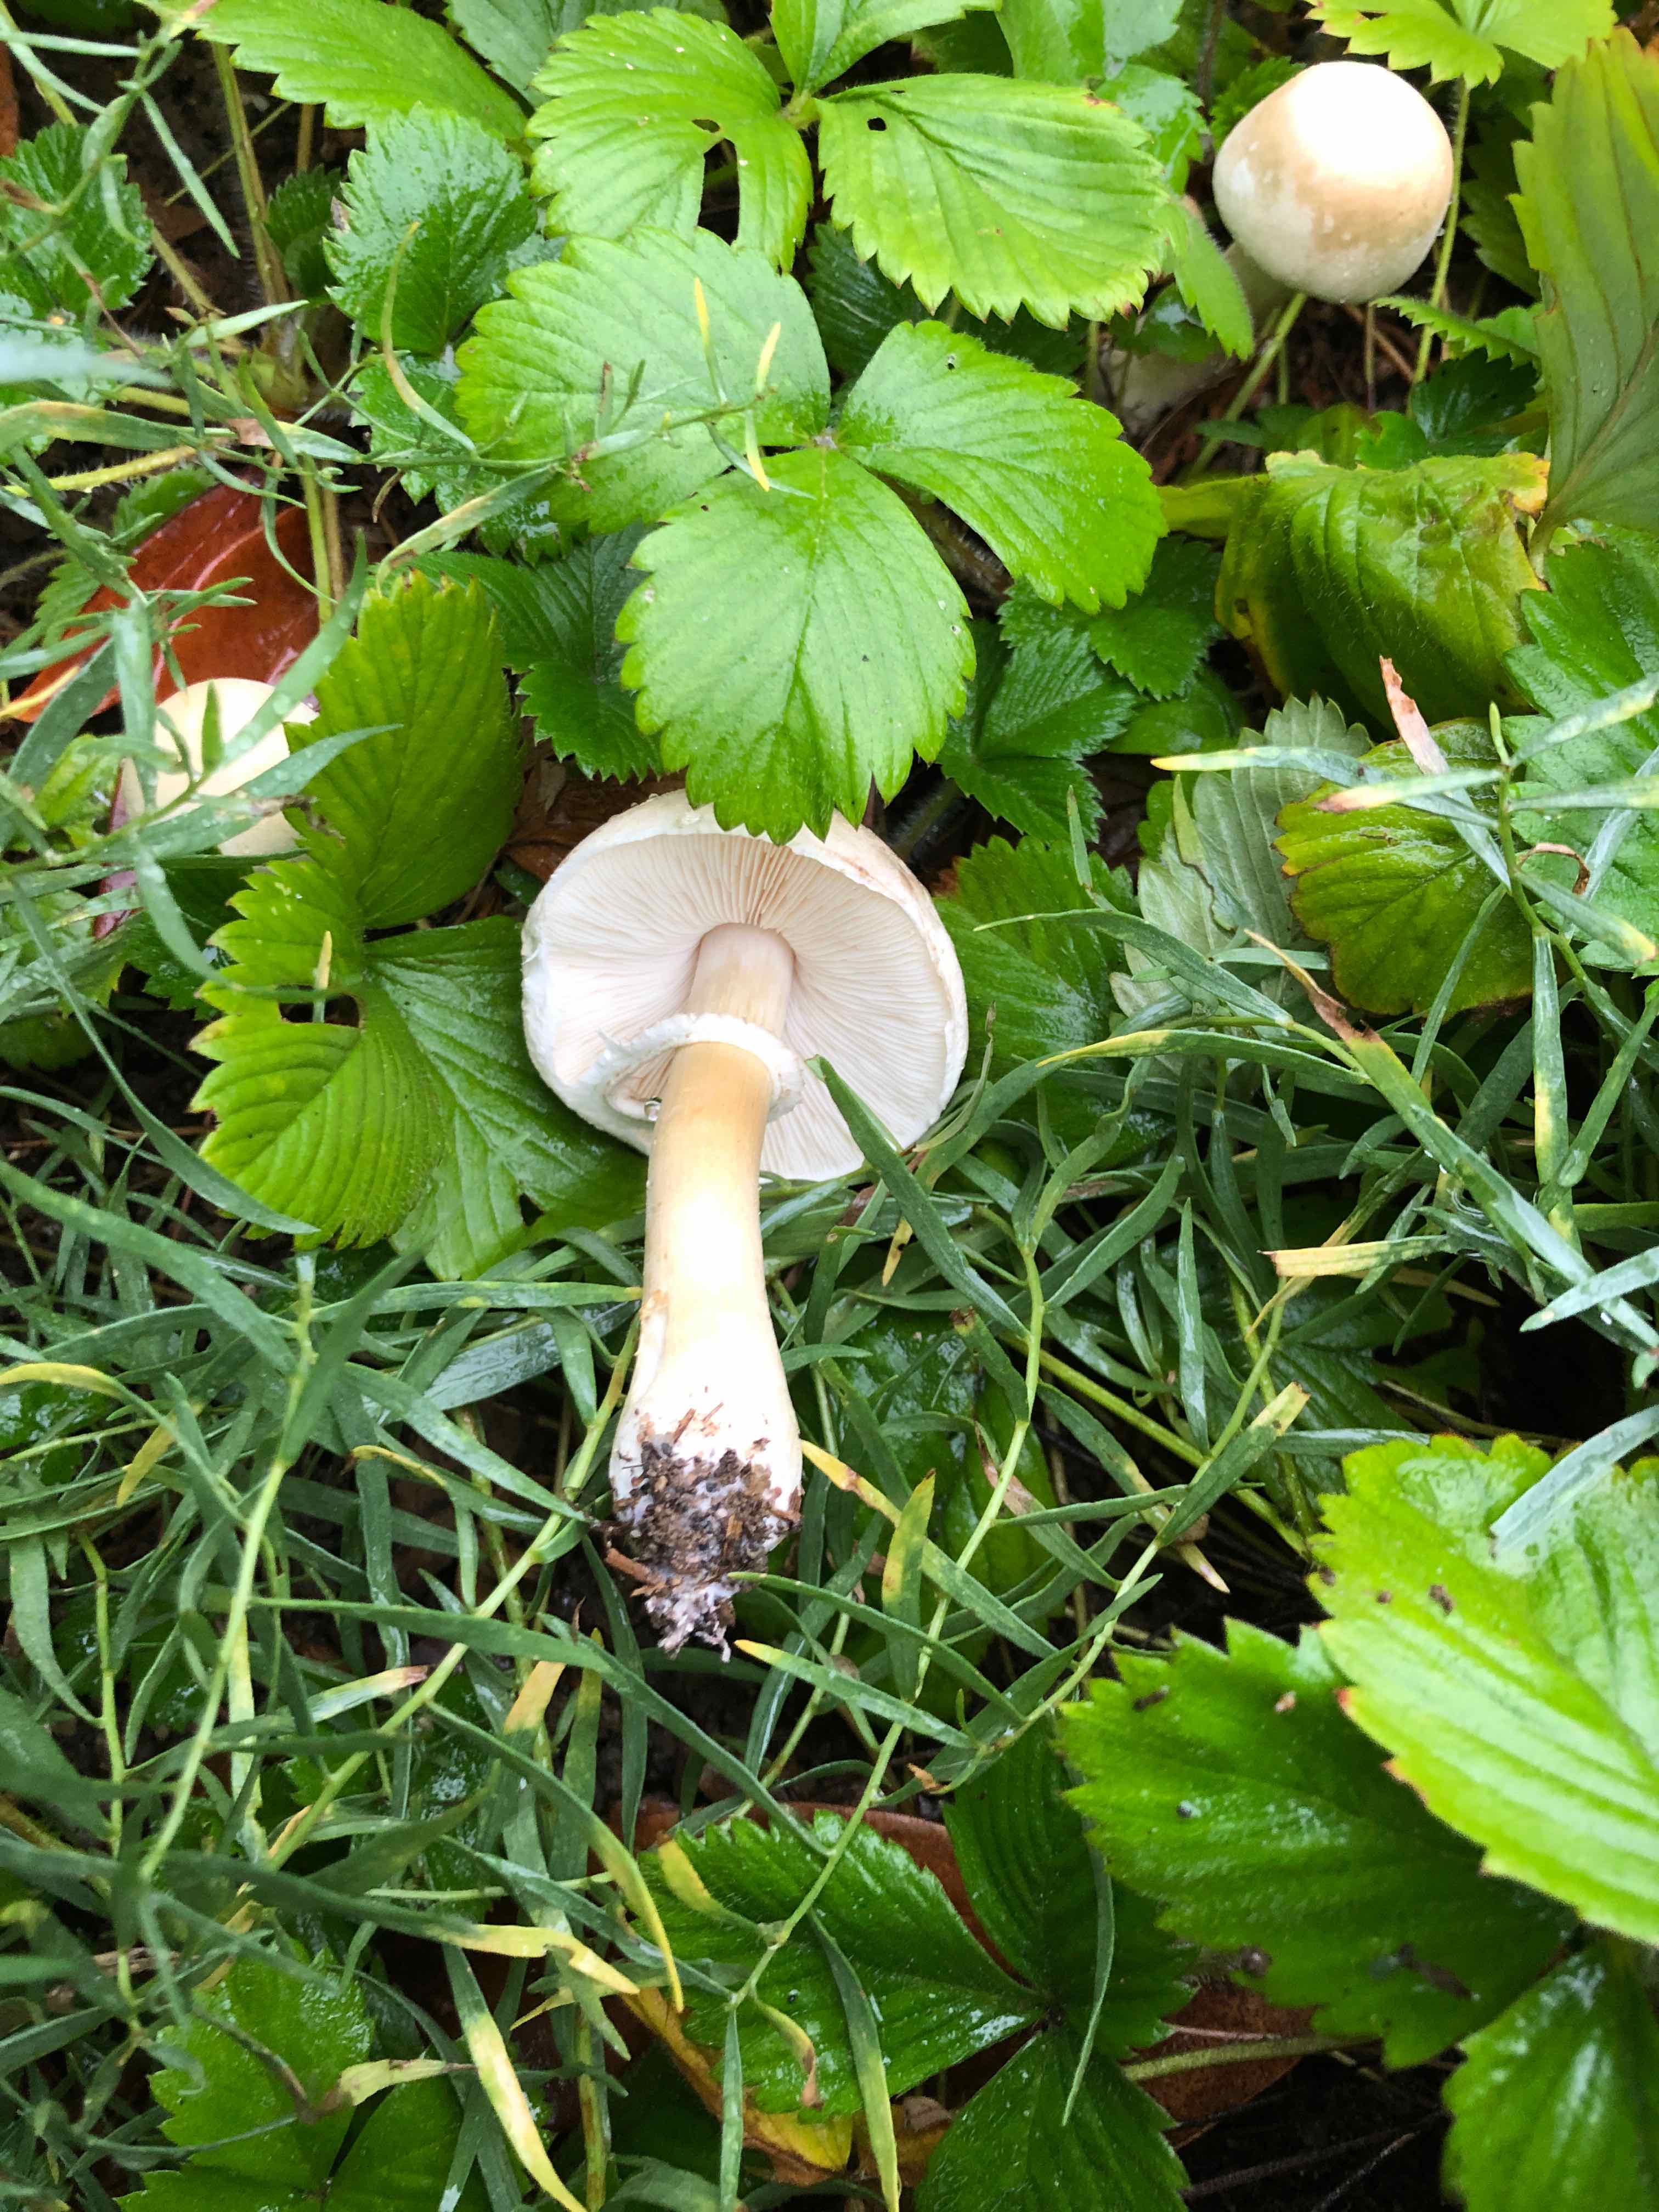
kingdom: Fungi
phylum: Basidiomycota
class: Agaricomycetes
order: Agaricales
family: Agaricaceae
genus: Leucoagaricus
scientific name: Leucoagaricus leucothites
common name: rosabladet silkehat
